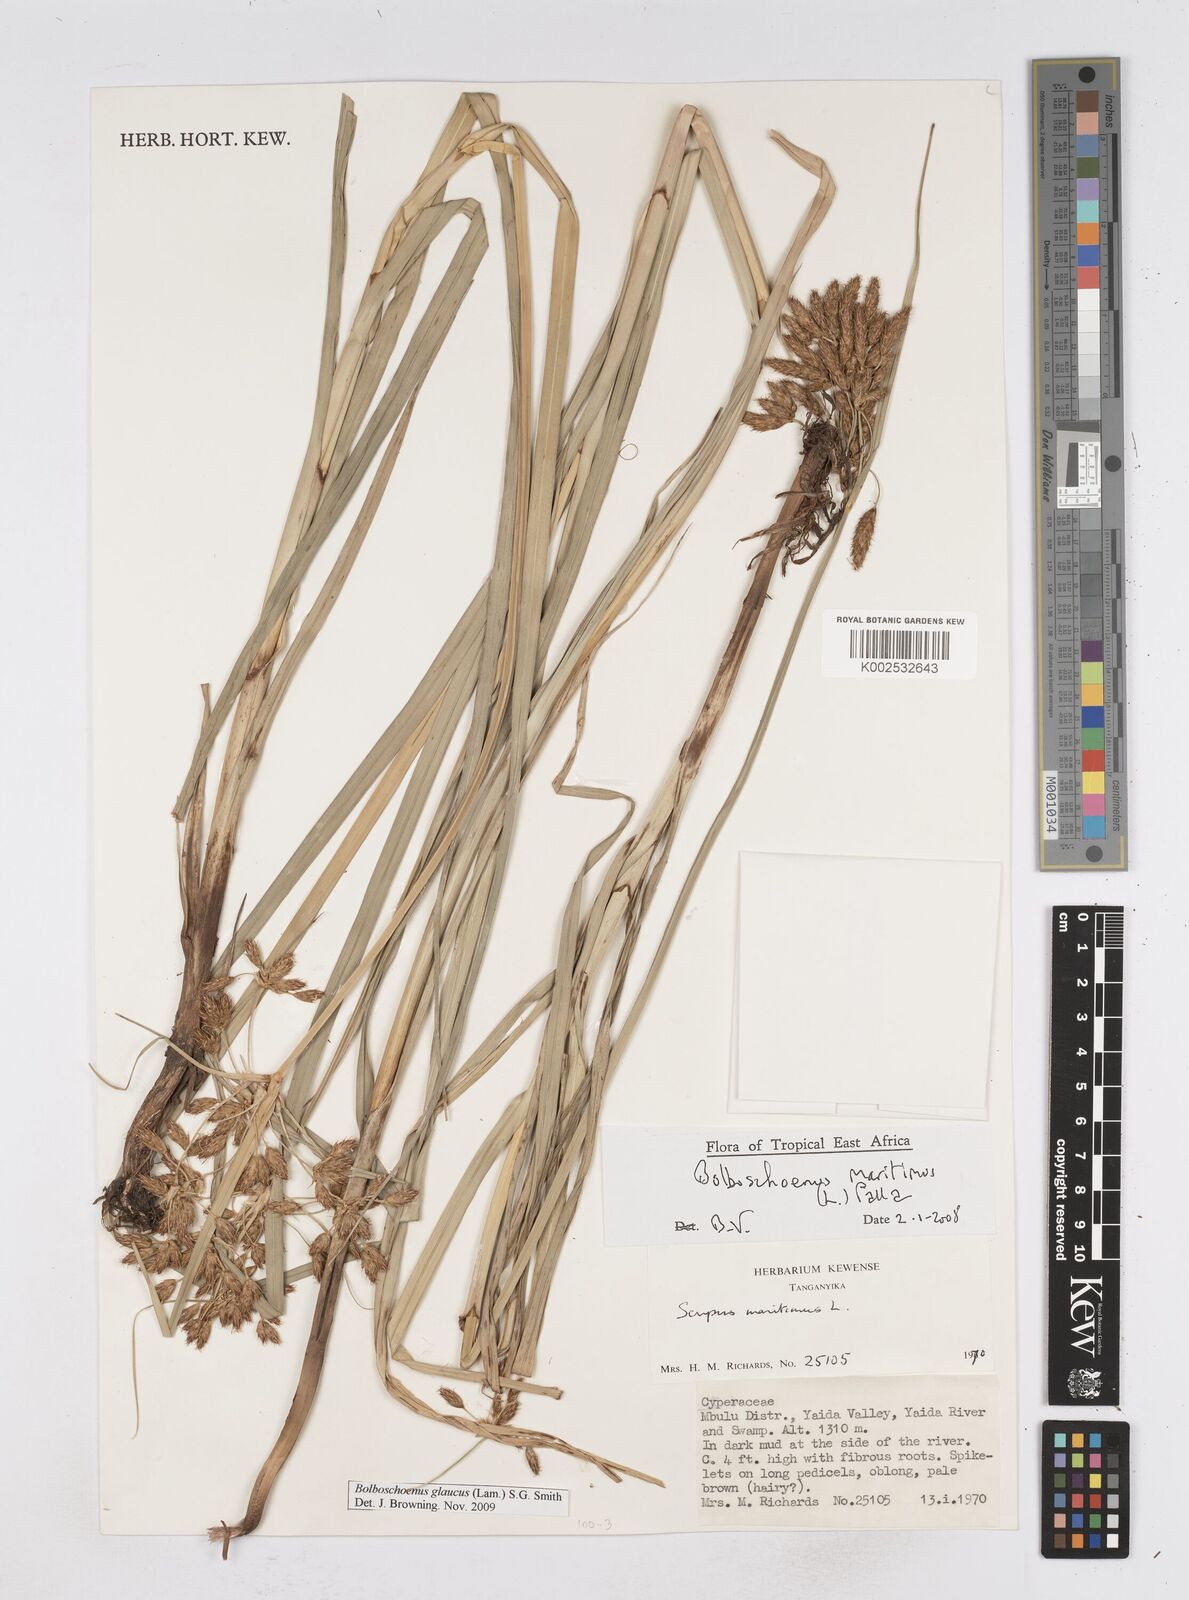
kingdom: Plantae
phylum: Tracheophyta
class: Liliopsida
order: Poales
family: Cyperaceae
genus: Bolboschoenus
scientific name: Bolboschoenus glaucus
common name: Tuberous bulrush
